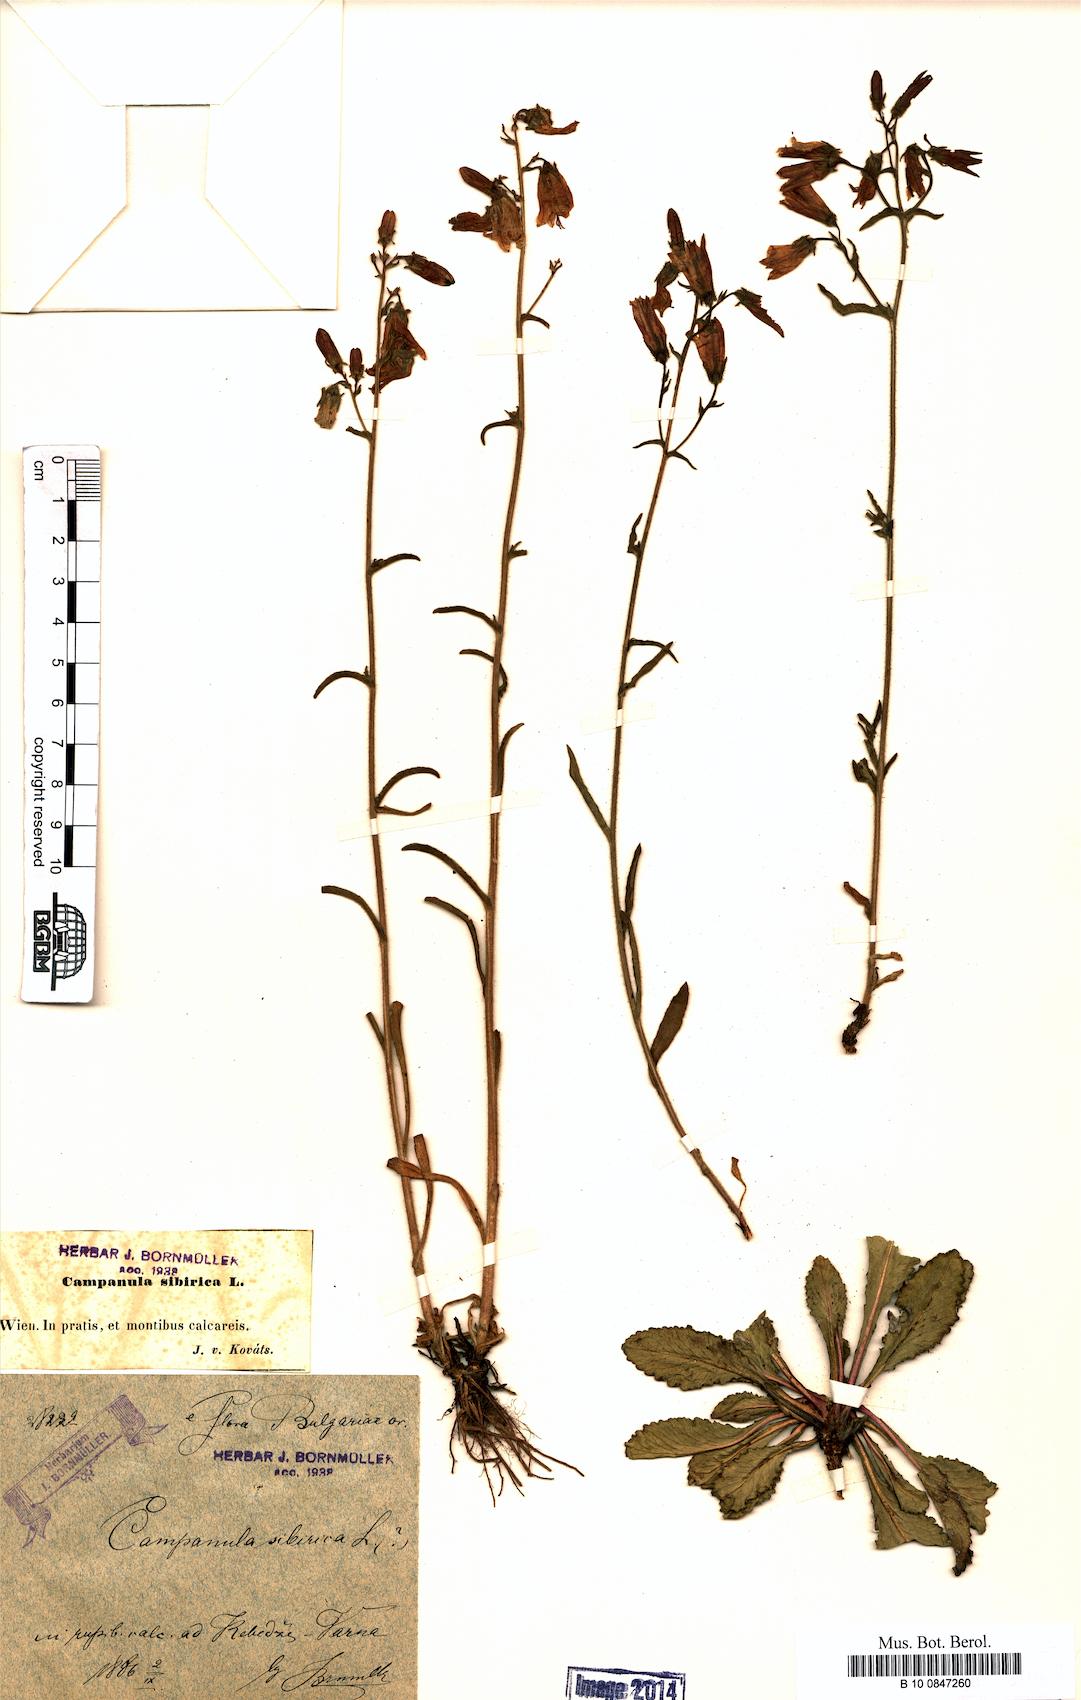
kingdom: Plantae
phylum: Tracheophyta
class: Magnoliopsida
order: Asterales
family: Campanulaceae
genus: Campanula
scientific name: Campanula sibirica
